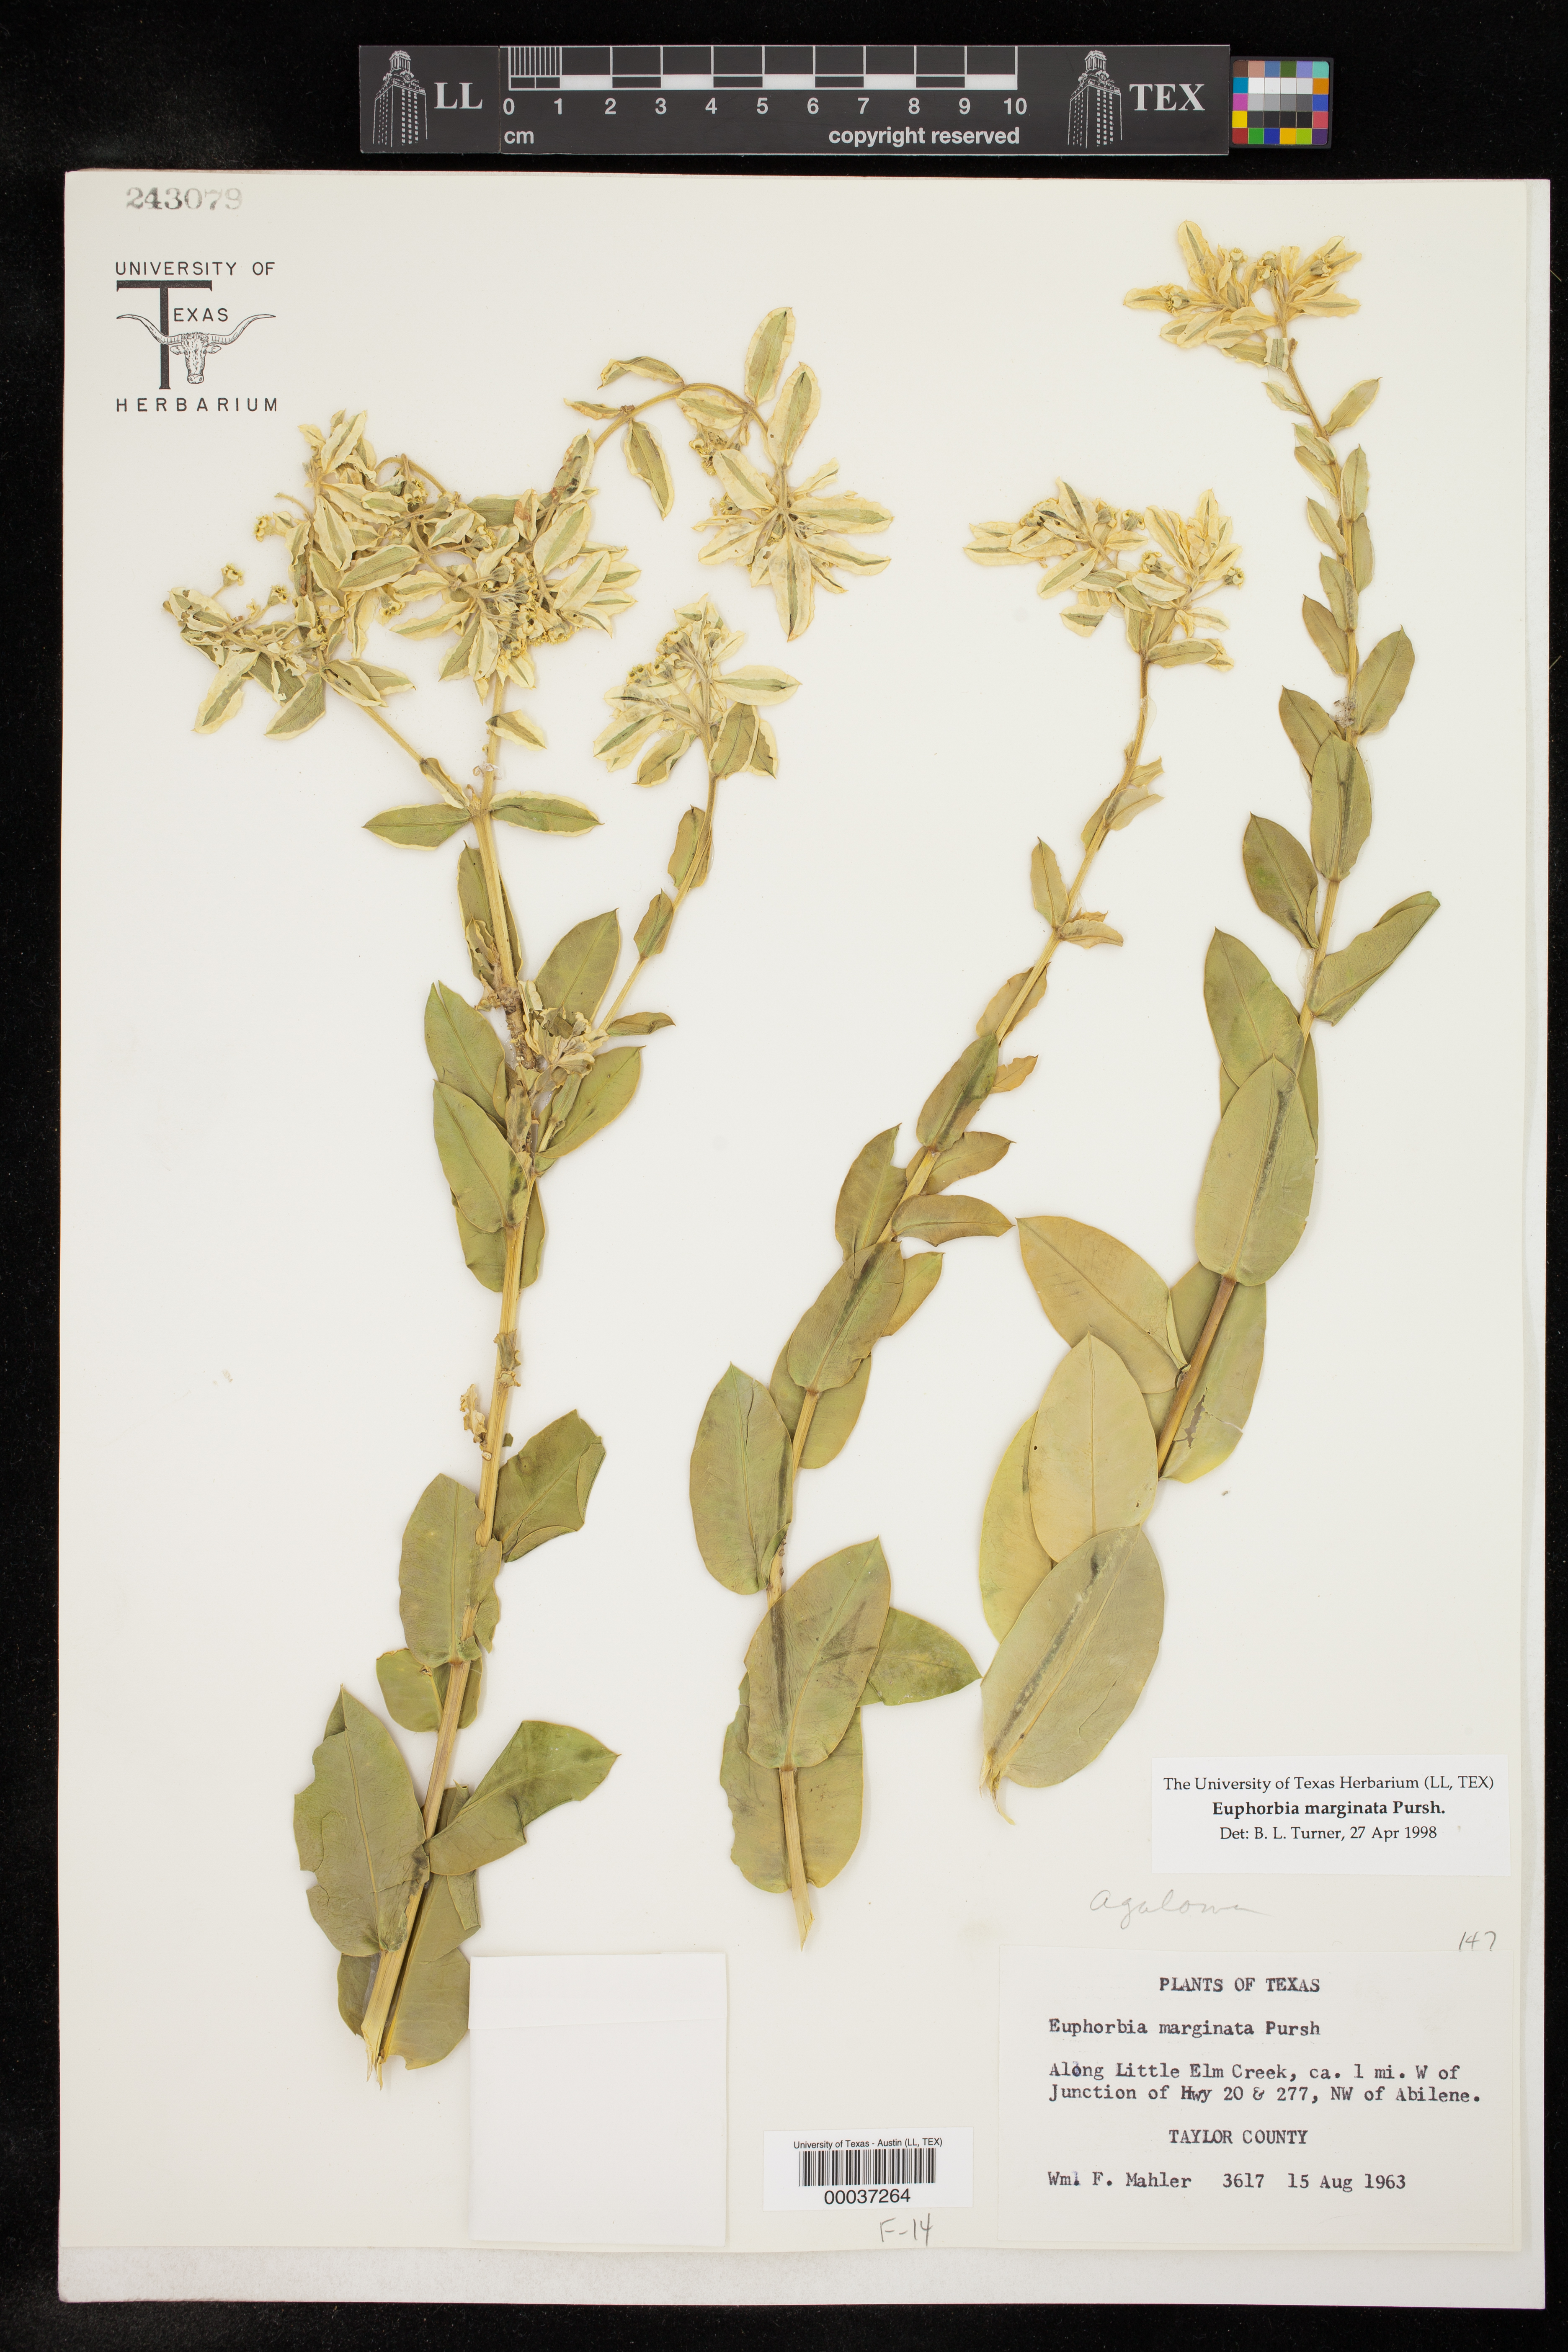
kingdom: Plantae
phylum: Tracheophyta
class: Magnoliopsida
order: Malpighiales
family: Euphorbiaceae
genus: Euphorbia
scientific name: Euphorbia marginata
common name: Ghostweed
